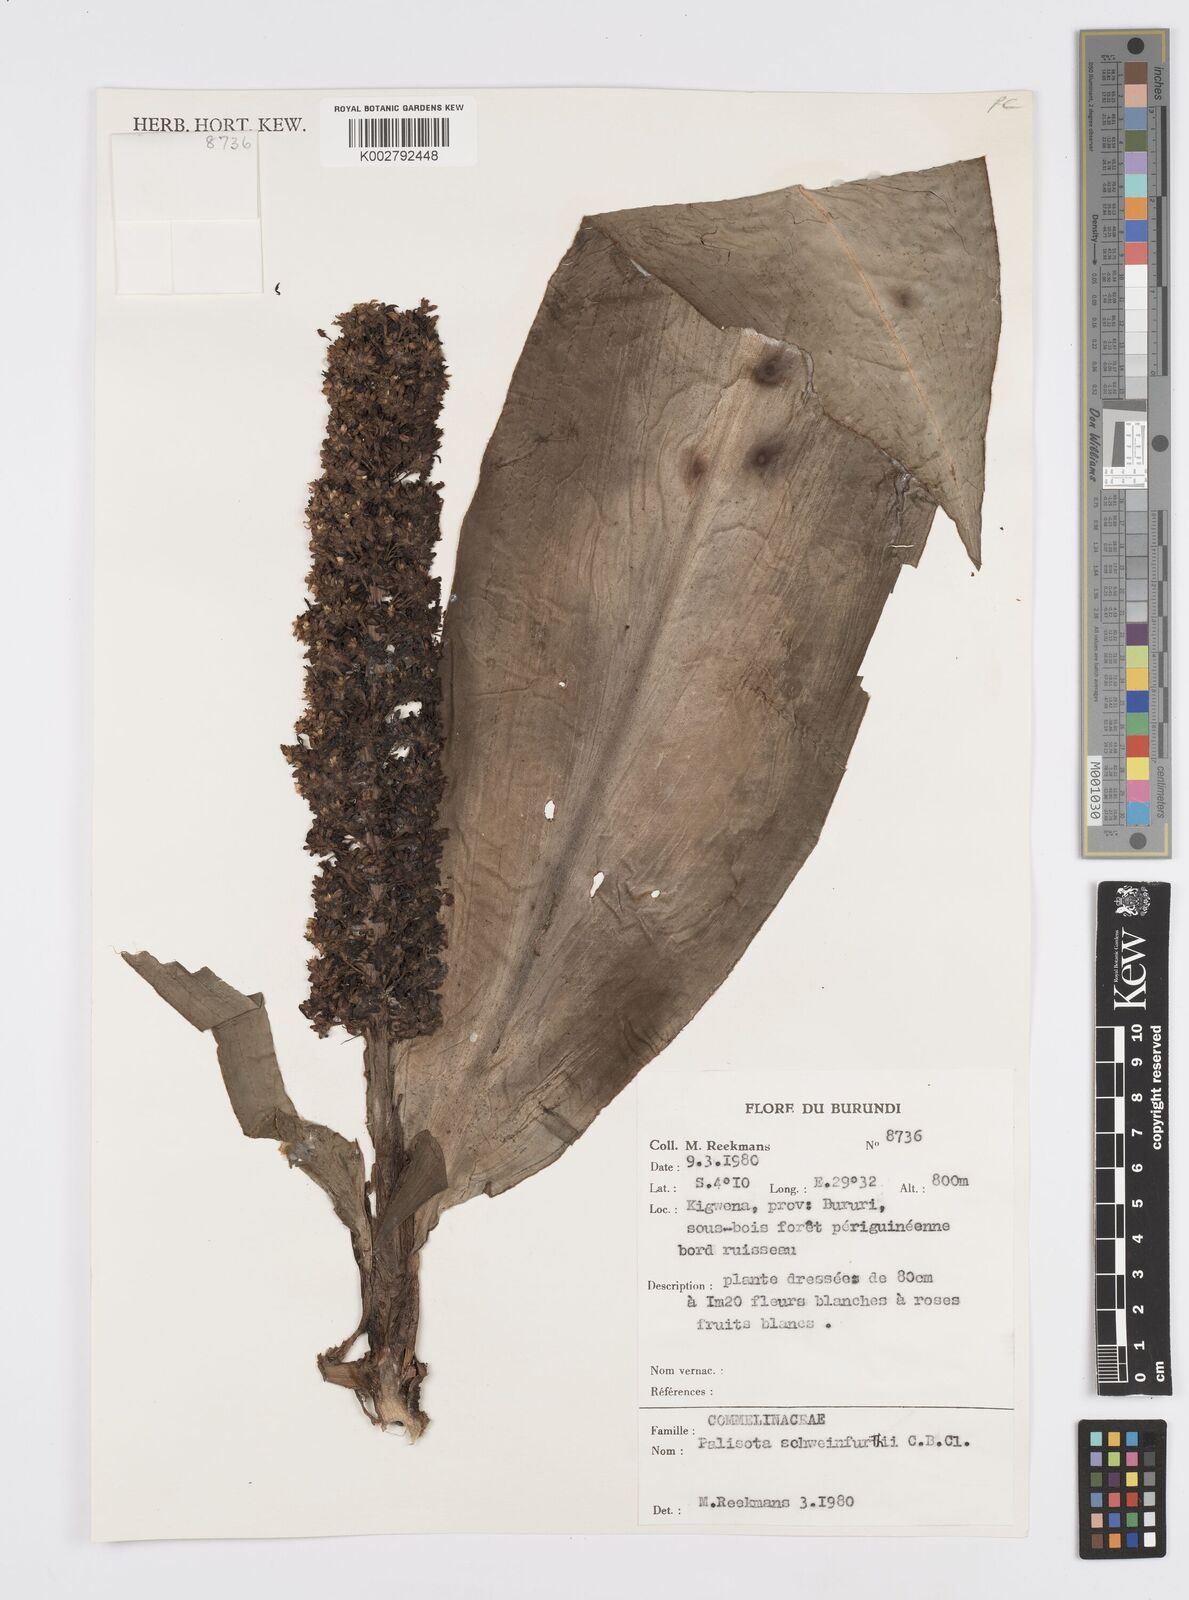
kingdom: Plantae
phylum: Tracheophyta
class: Liliopsida
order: Commelinales
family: Commelinaceae
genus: Palisota
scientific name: Palisota schweinfurthii
